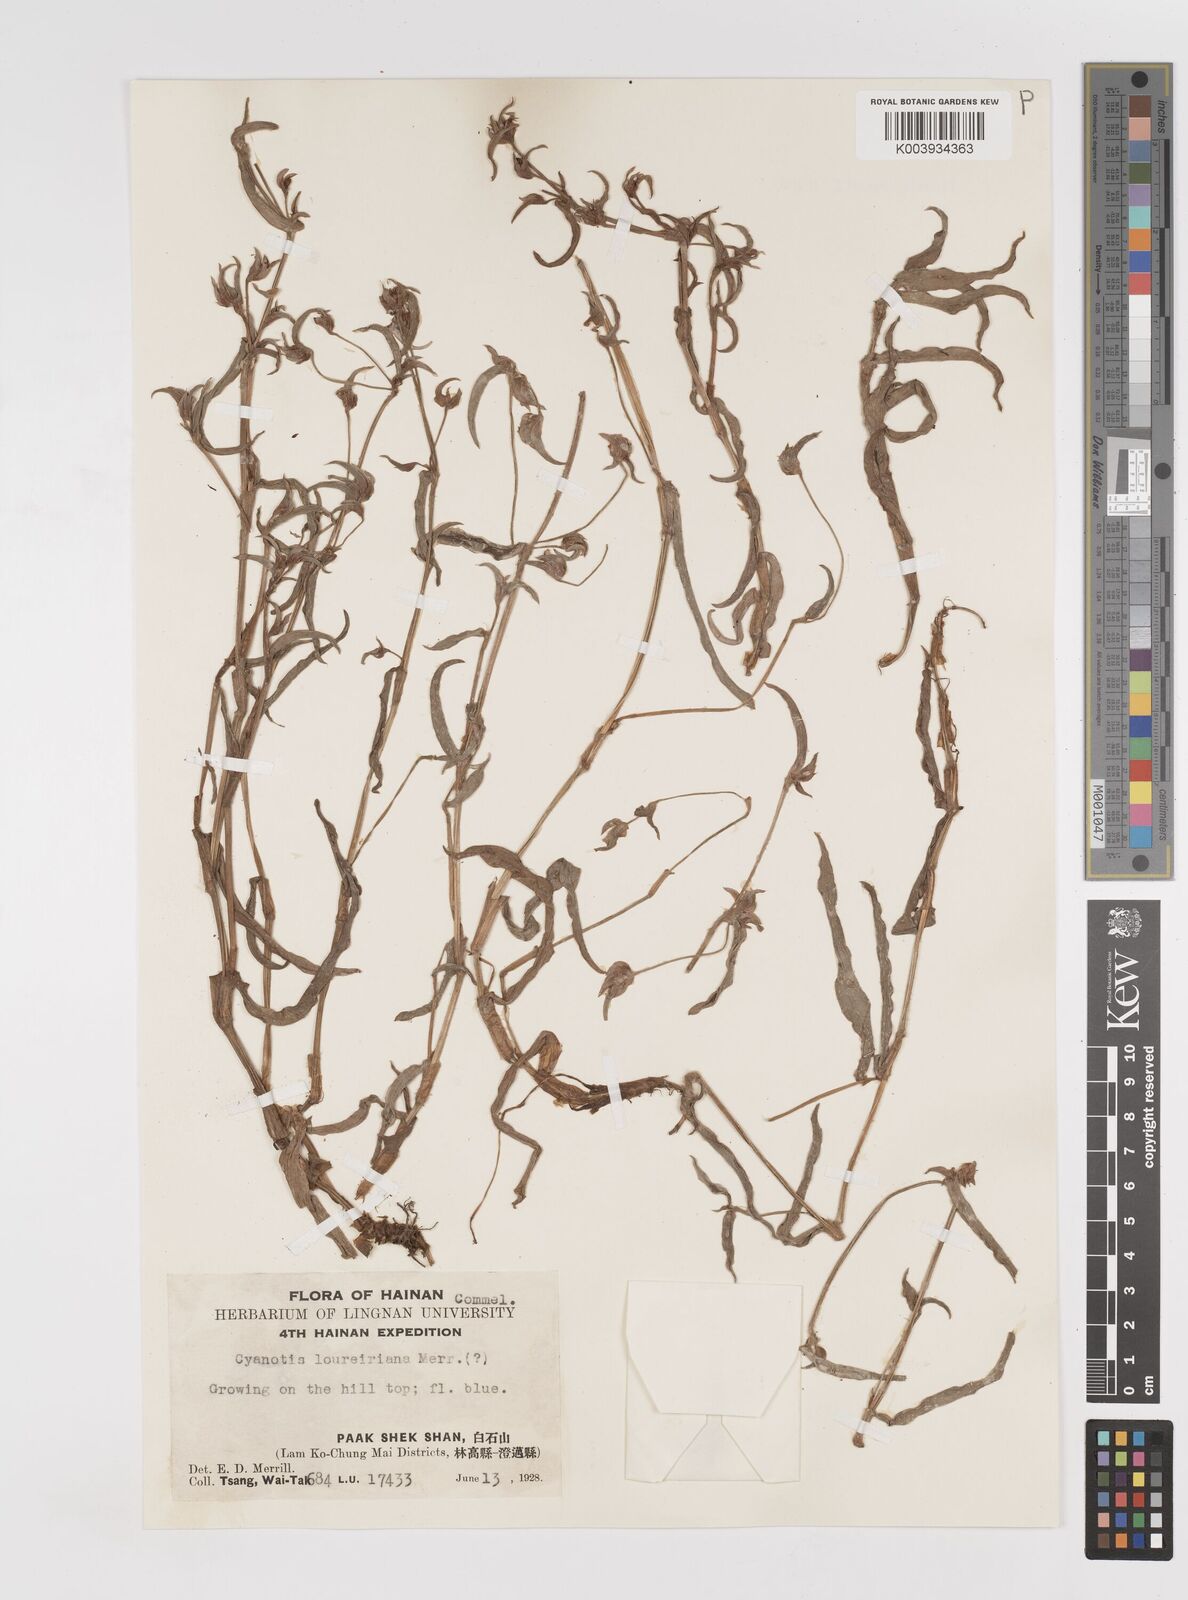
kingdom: Plantae
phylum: Tracheophyta
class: Liliopsida
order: Commelinales
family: Commelinaceae
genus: Cyanotis
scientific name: Cyanotis loureiroana
